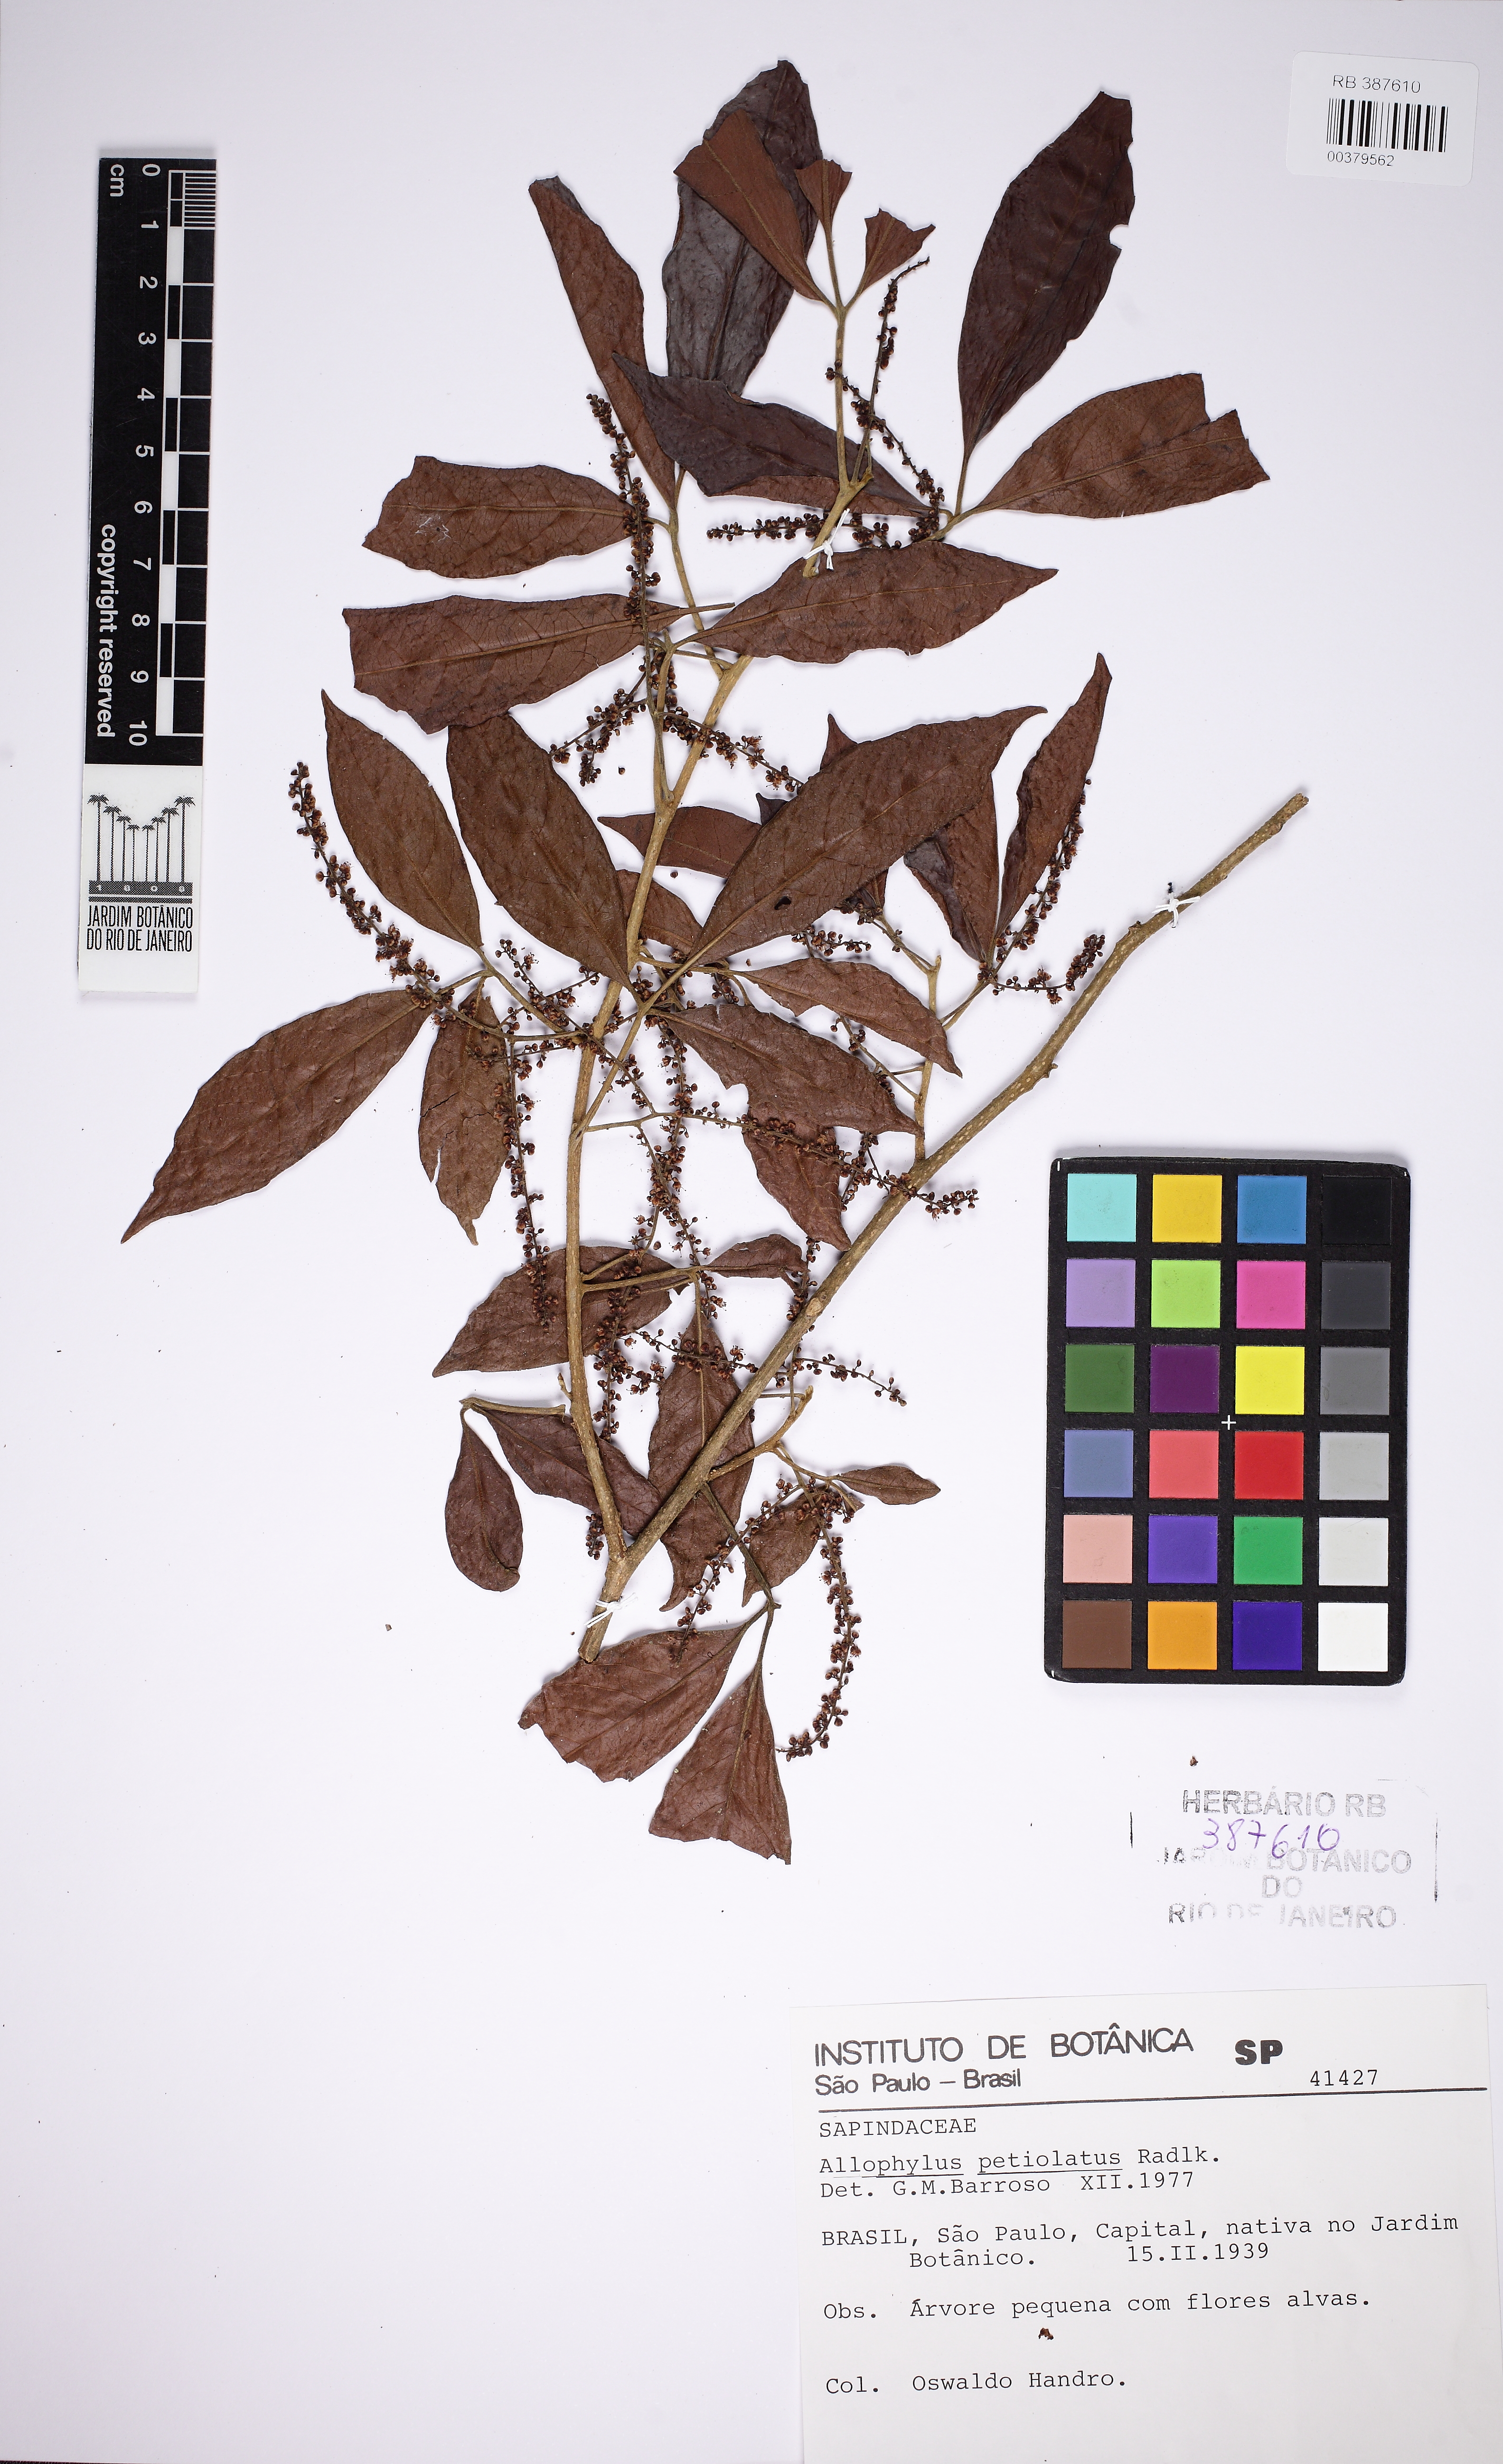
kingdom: Plantae
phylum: Tracheophyta
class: Magnoliopsida
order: Sapindales
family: Sapindaceae
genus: Allophylus
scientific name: Allophylus petiolulatus
